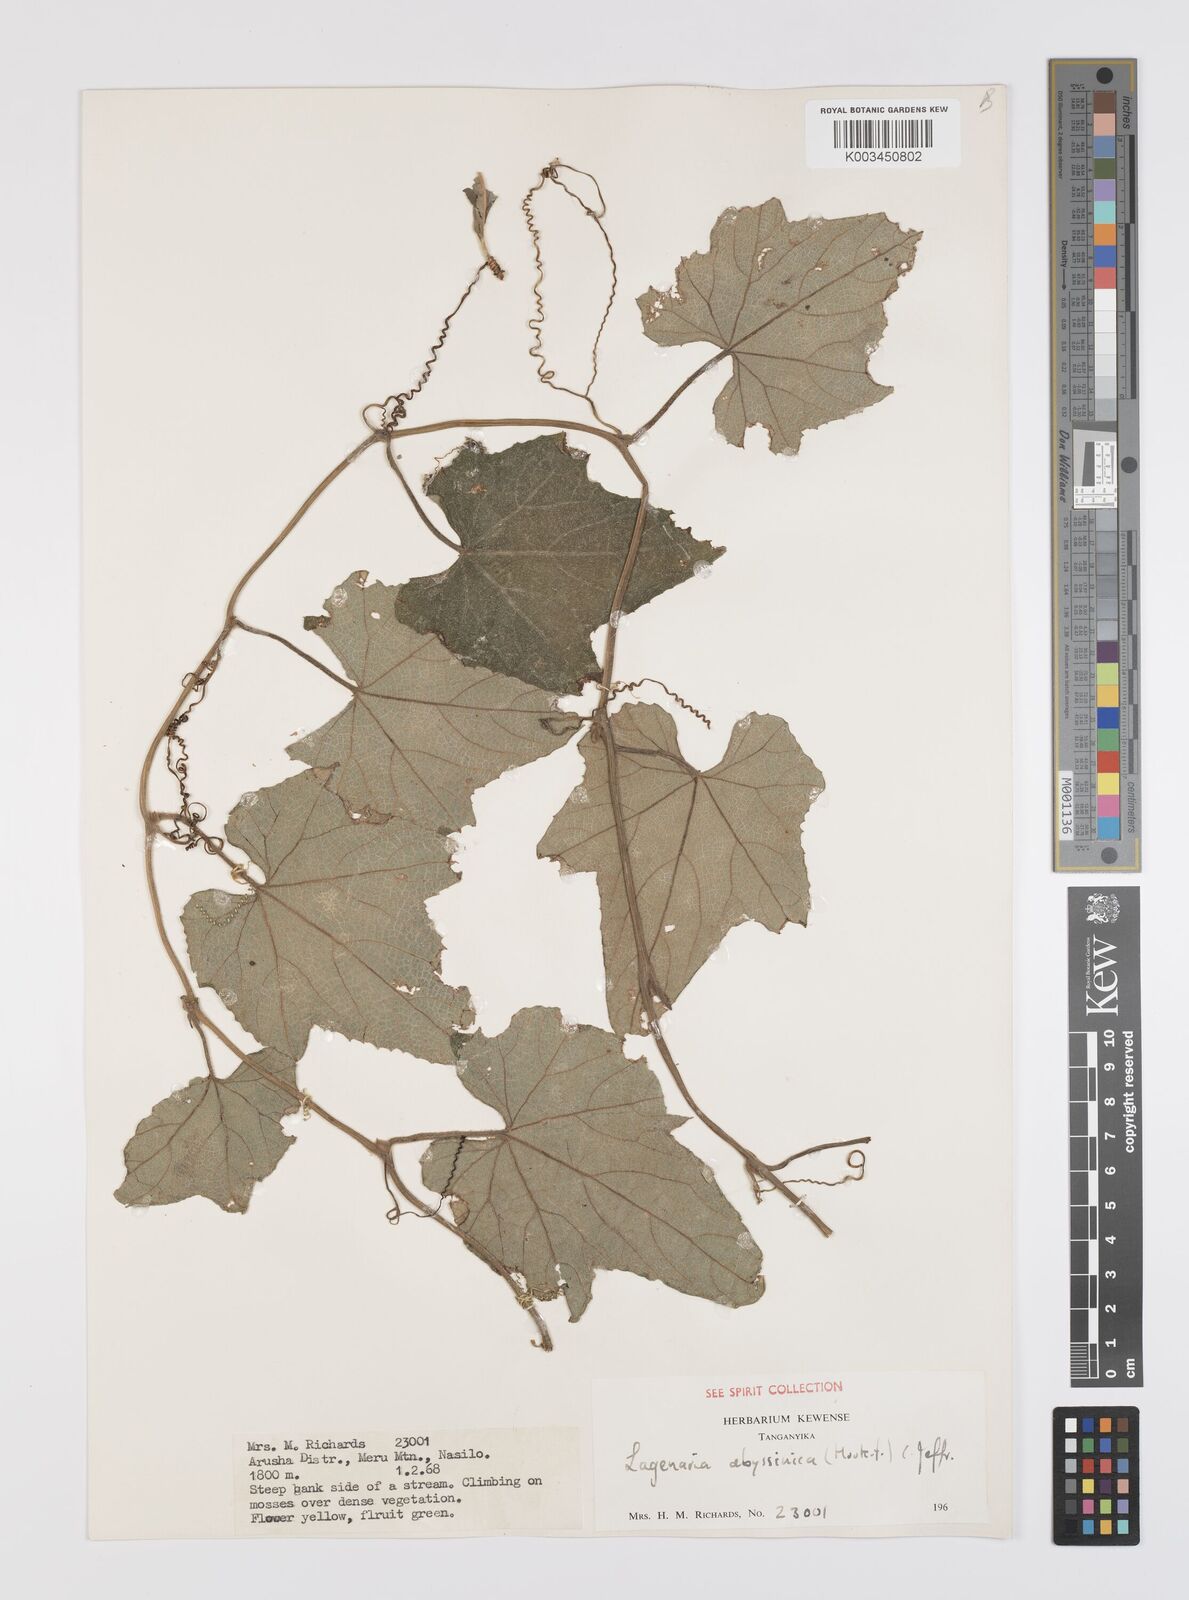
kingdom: Plantae
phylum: Tracheophyta
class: Magnoliopsida
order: Cucurbitales
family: Cucurbitaceae
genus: Lagenaria
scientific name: Lagenaria abyssinica
